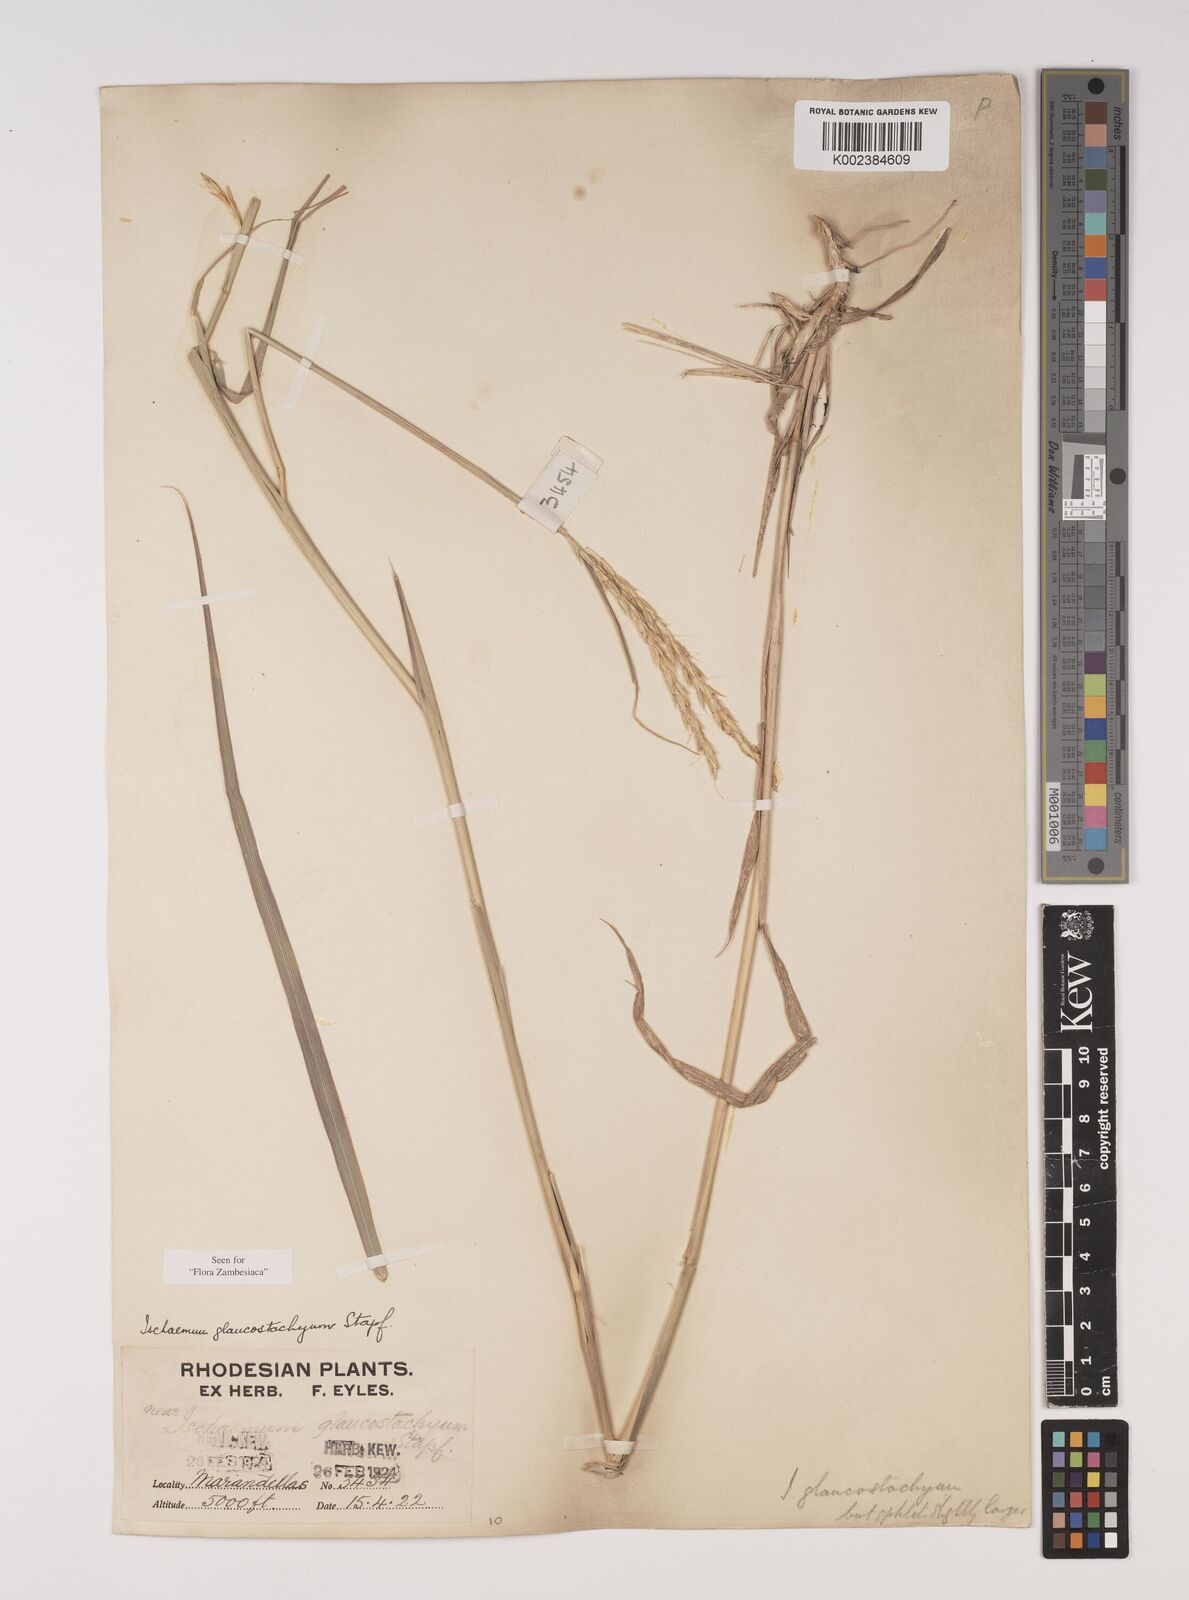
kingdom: Plantae
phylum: Tracheophyta
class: Liliopsida
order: Poales
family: Poaceae
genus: Ischaemum
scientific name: Ischaemum afrum
